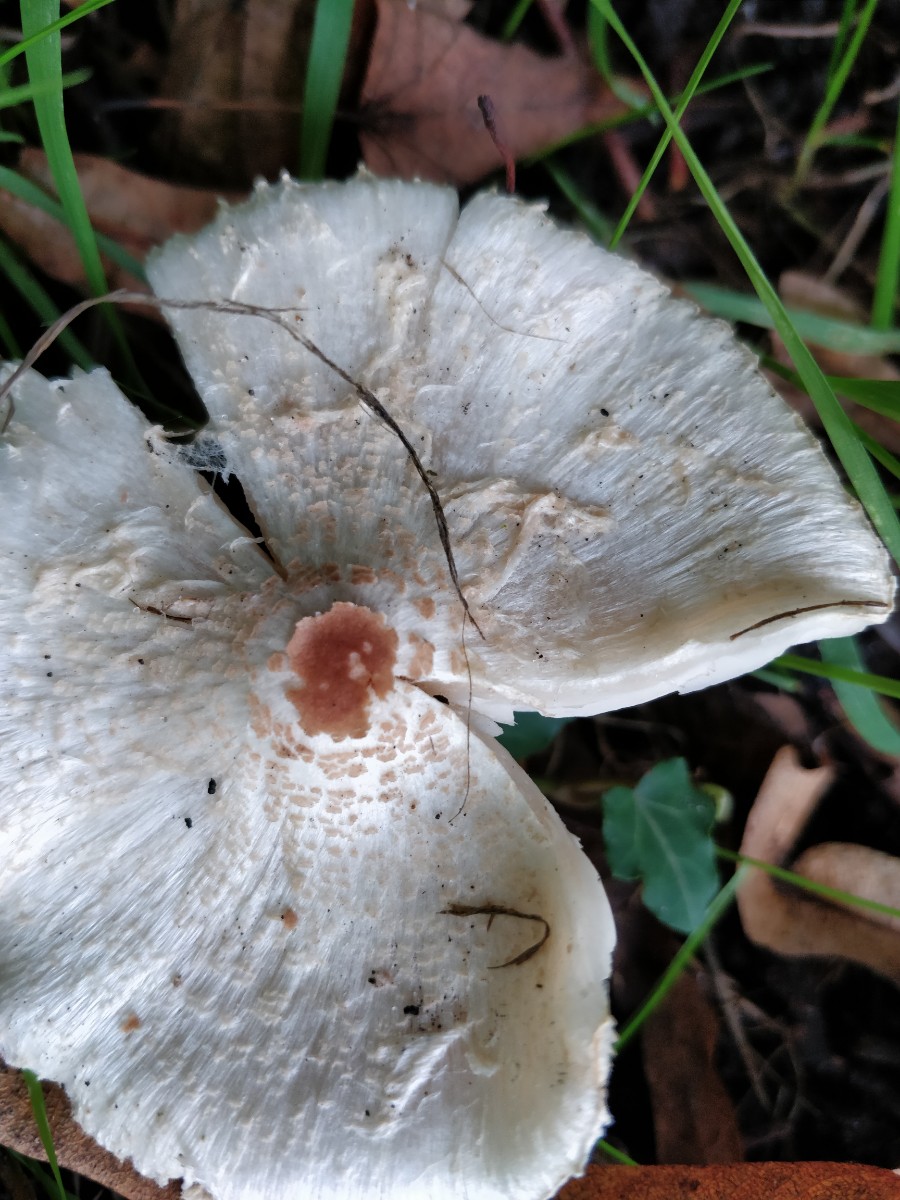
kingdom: Fungi
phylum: Basidiomycota
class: Agaricomycetes
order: Agaricales
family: Agaricaceae
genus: Lepiota
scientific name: Lepiota cristata
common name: stinkende parasolhat
